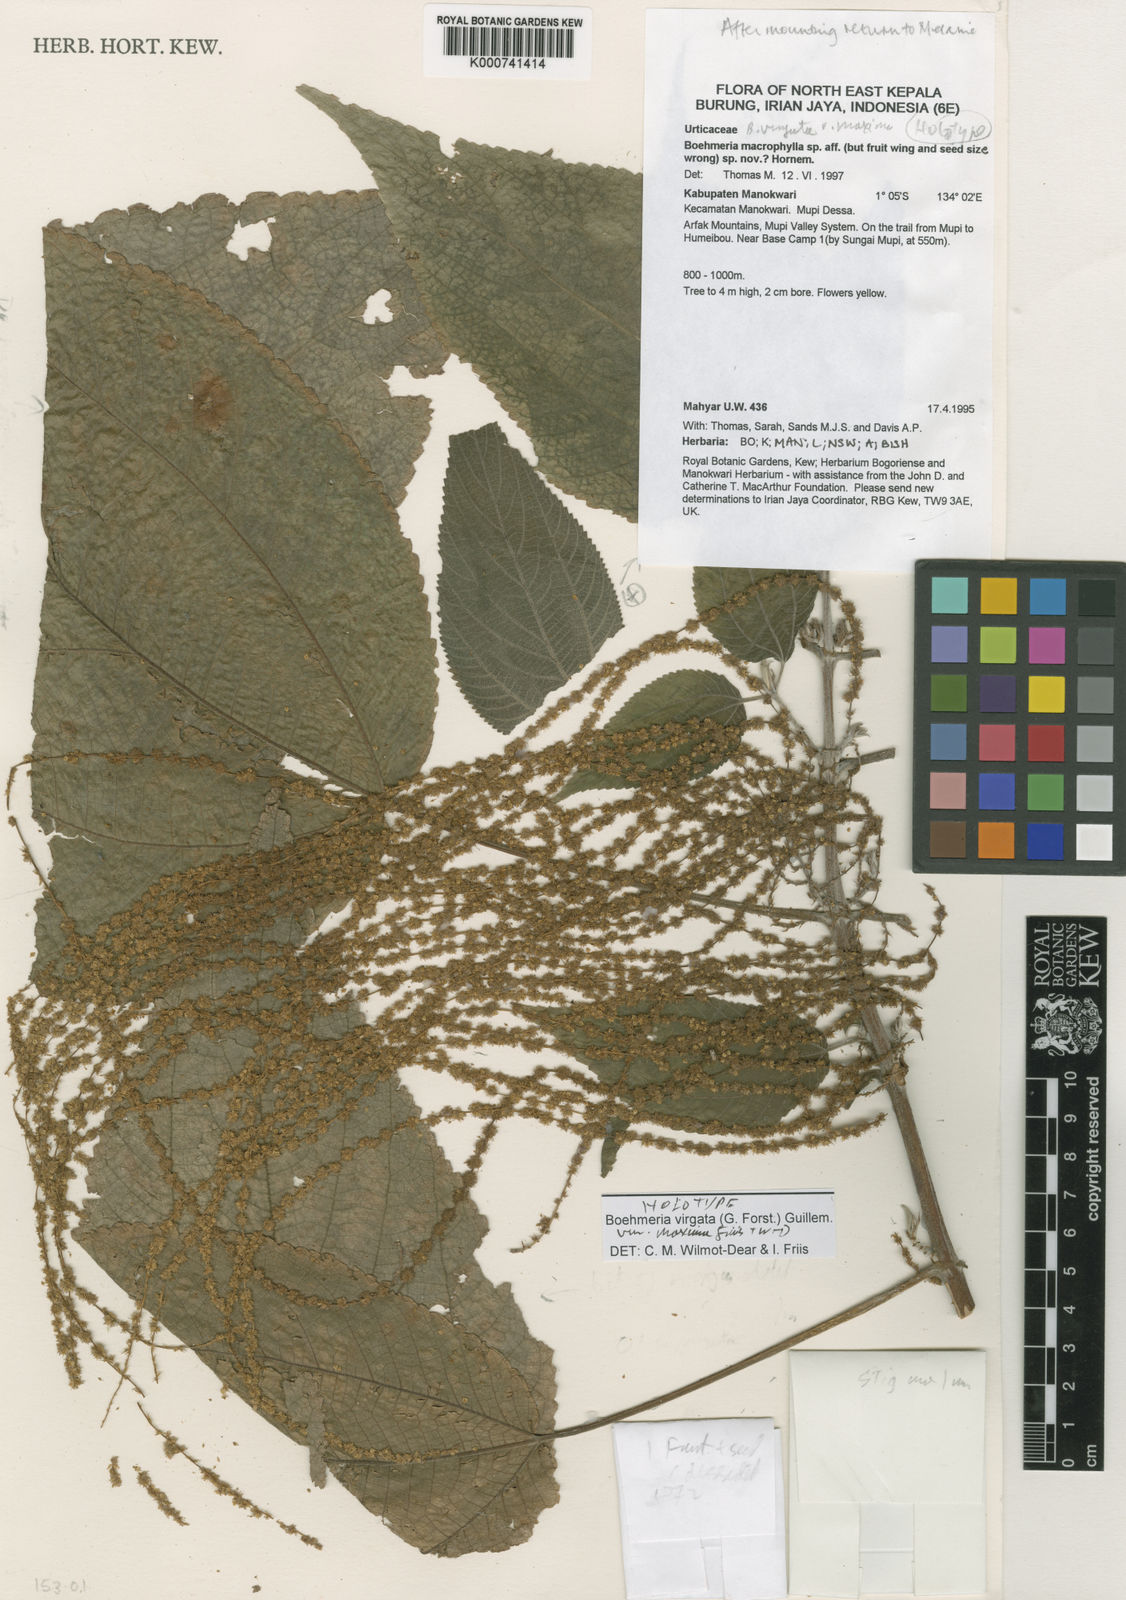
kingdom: Plantae
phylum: Tracheophyta
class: Magnoliopsida
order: Rosales
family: Urticaceae
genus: Boehmeria
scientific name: Boehmeria virgata
